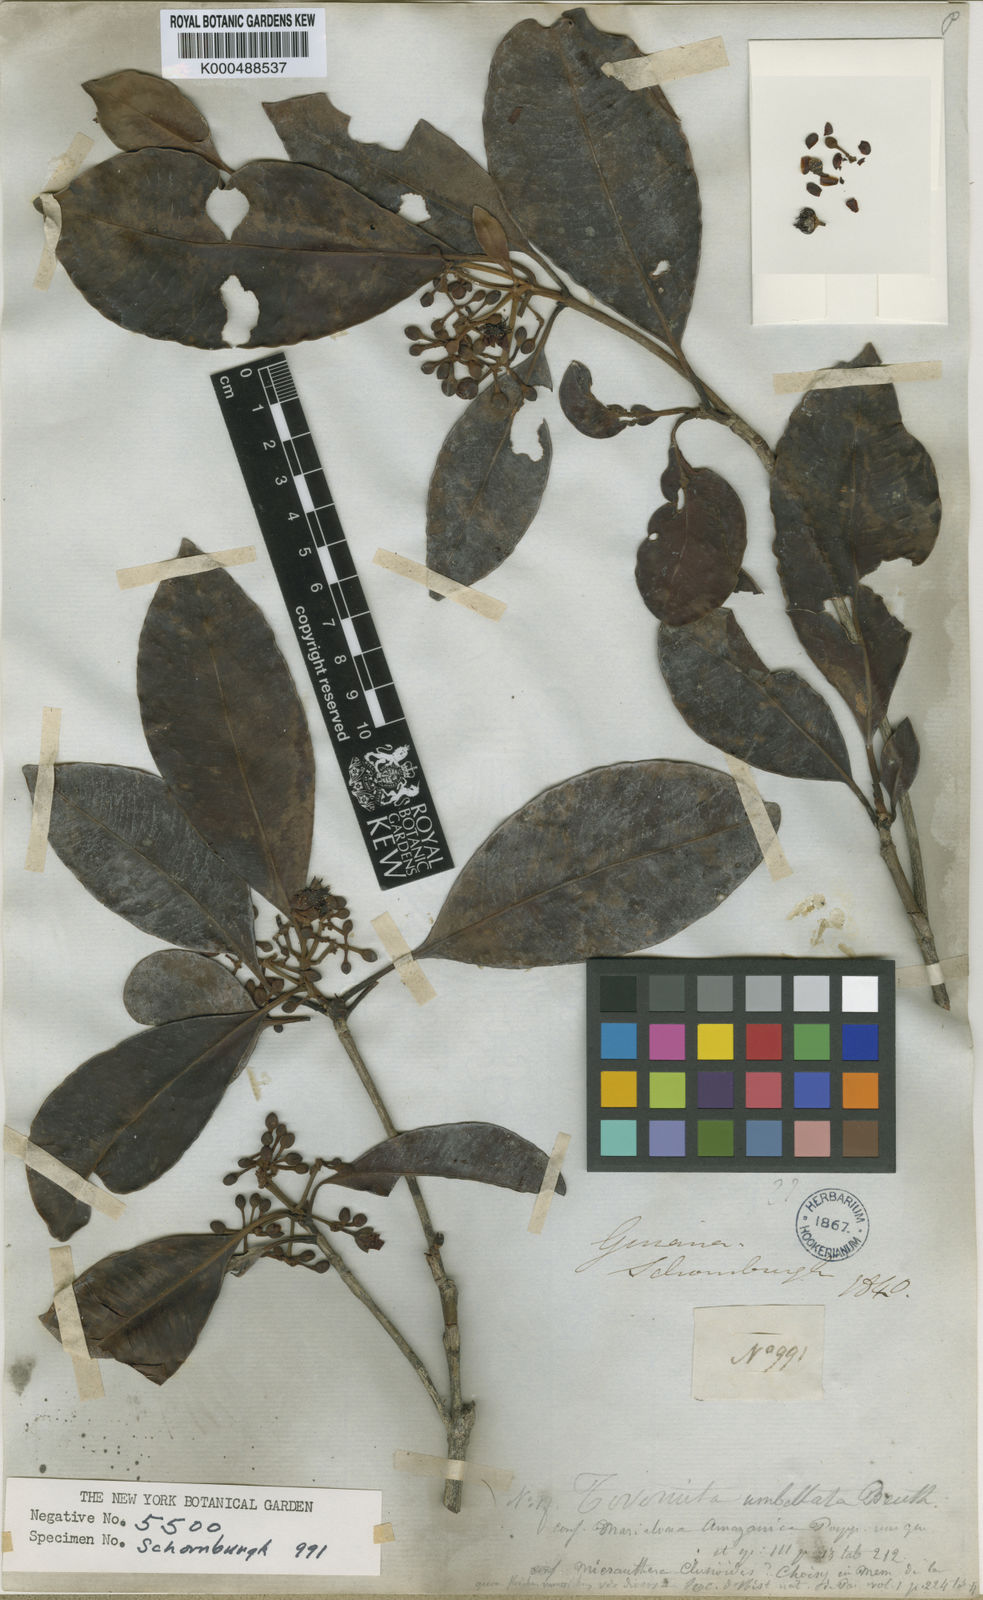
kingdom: Plantae
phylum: Tracheophyta
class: Magnoliopsida
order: Malpighiales
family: Clusiaceae
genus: Tovomita
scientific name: Tovomita umbellata
